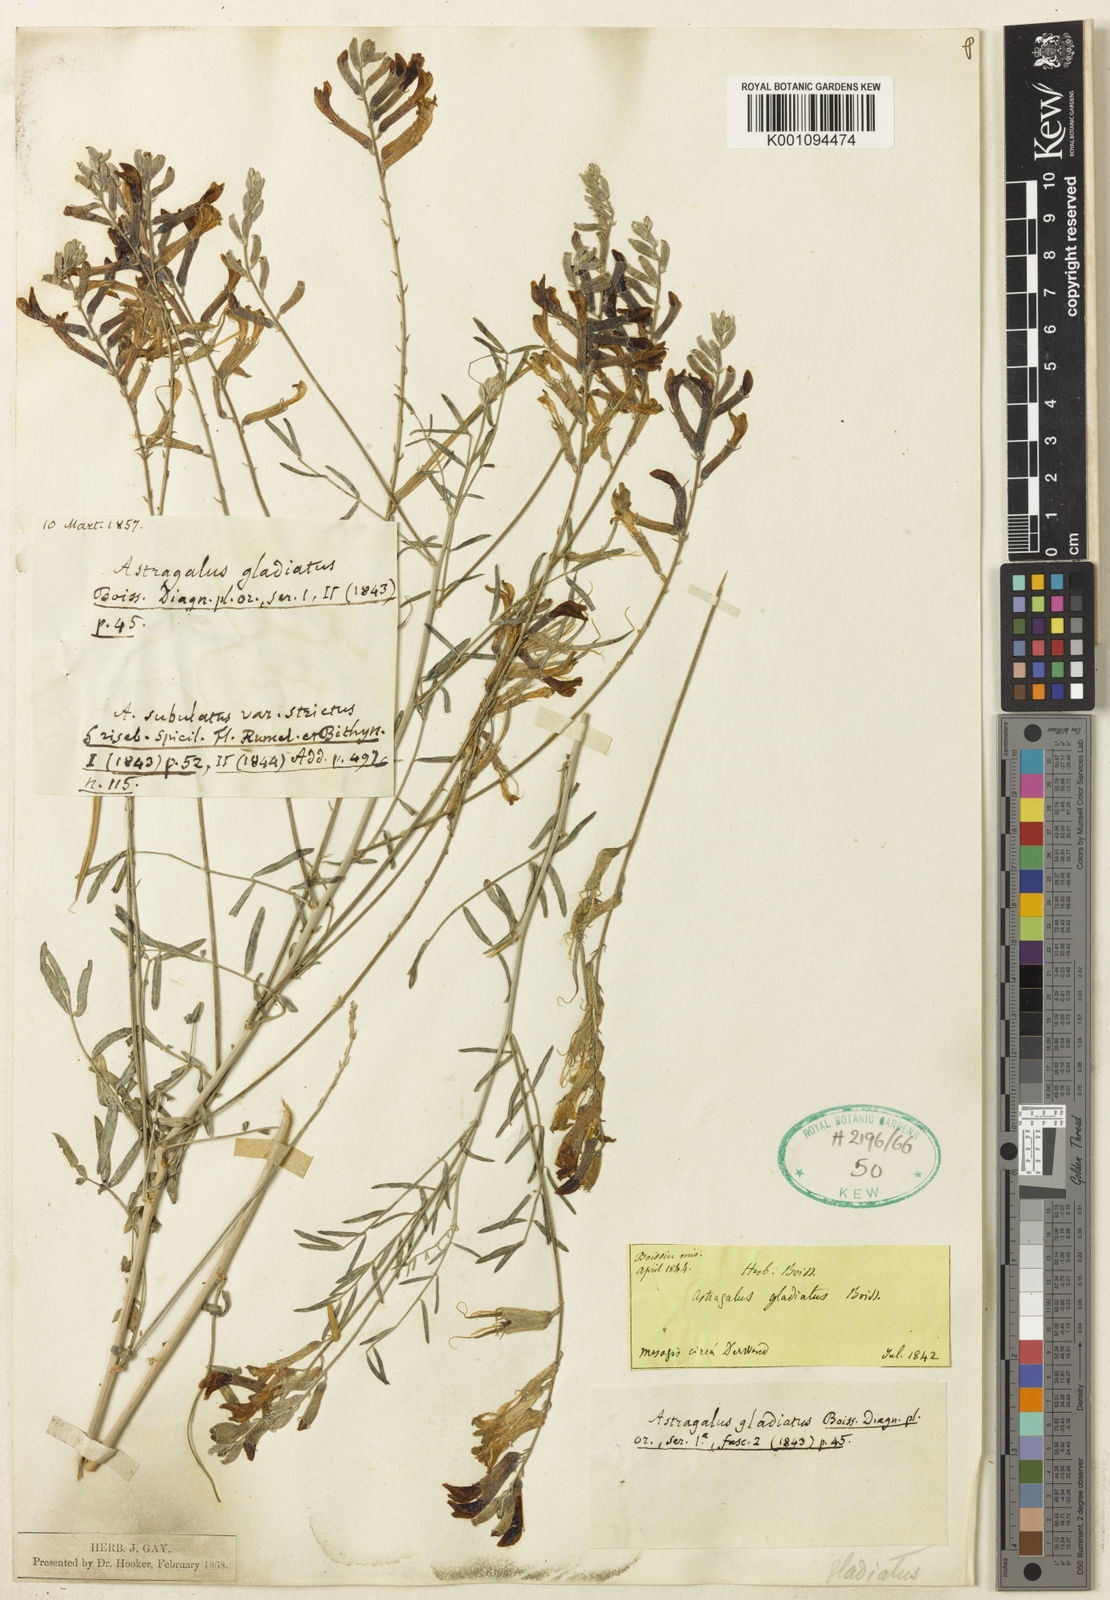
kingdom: Plantae
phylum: Tracheophyta
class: Magnoliopsida
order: Fabales
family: Fabaceae
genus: Astragalus
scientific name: Astragalus
